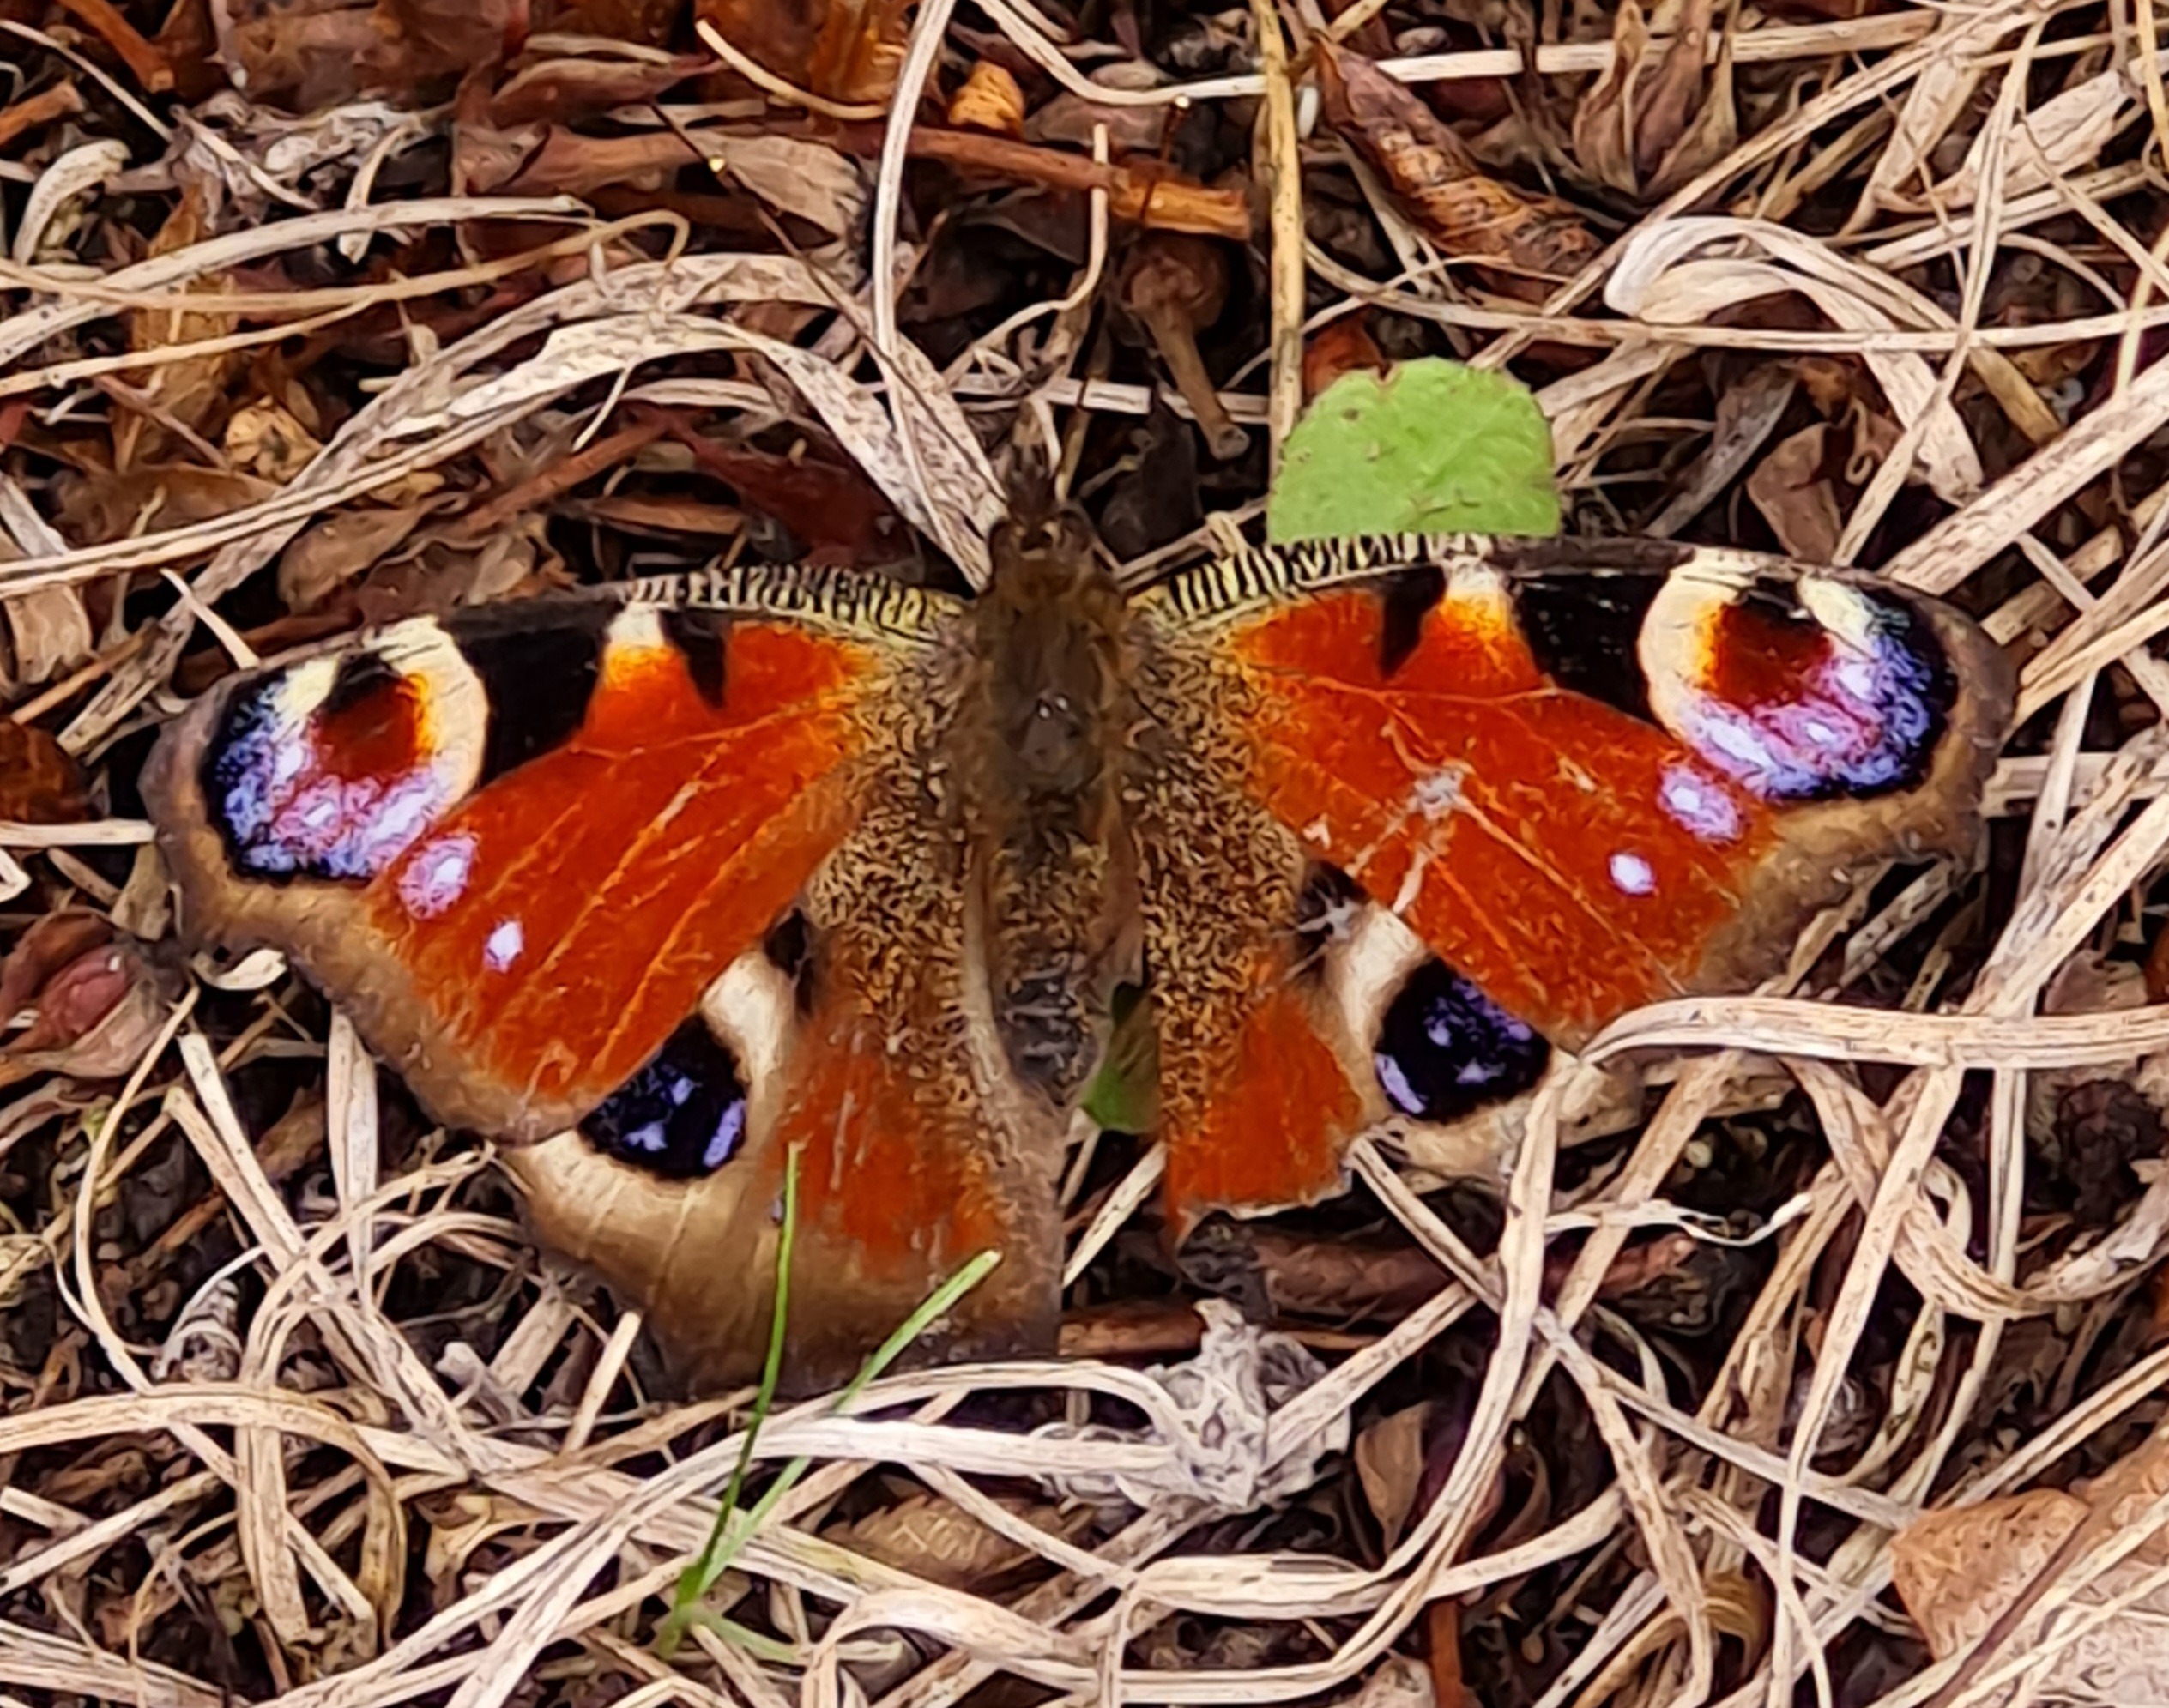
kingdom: Animalia
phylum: Arthropoda
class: Insecta
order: Lepidoptera
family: Nymphalidae
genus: Aglais
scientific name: Aglais io
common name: Dagpåfugleøje
